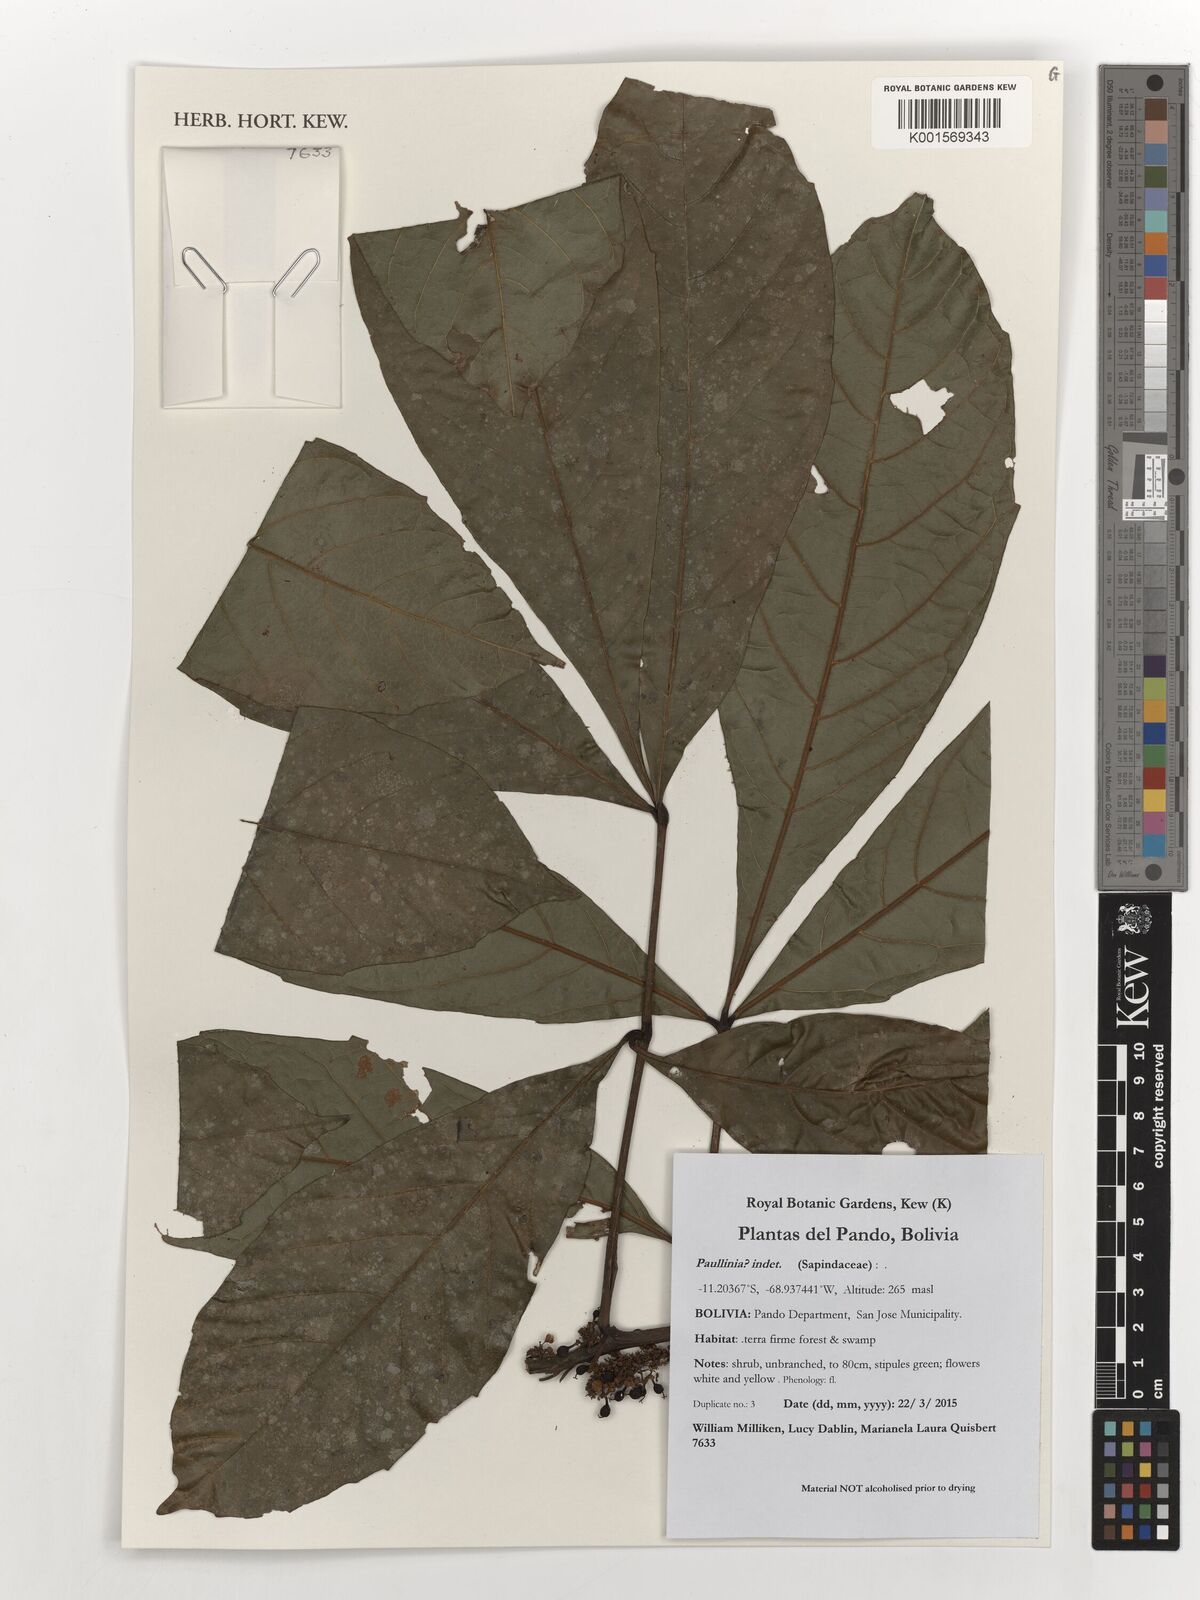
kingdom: Plantae
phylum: Tracheophyta
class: Magnoliopsida
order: Sapindales
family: Sapindaceae
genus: Paullinia
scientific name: Paullinia
